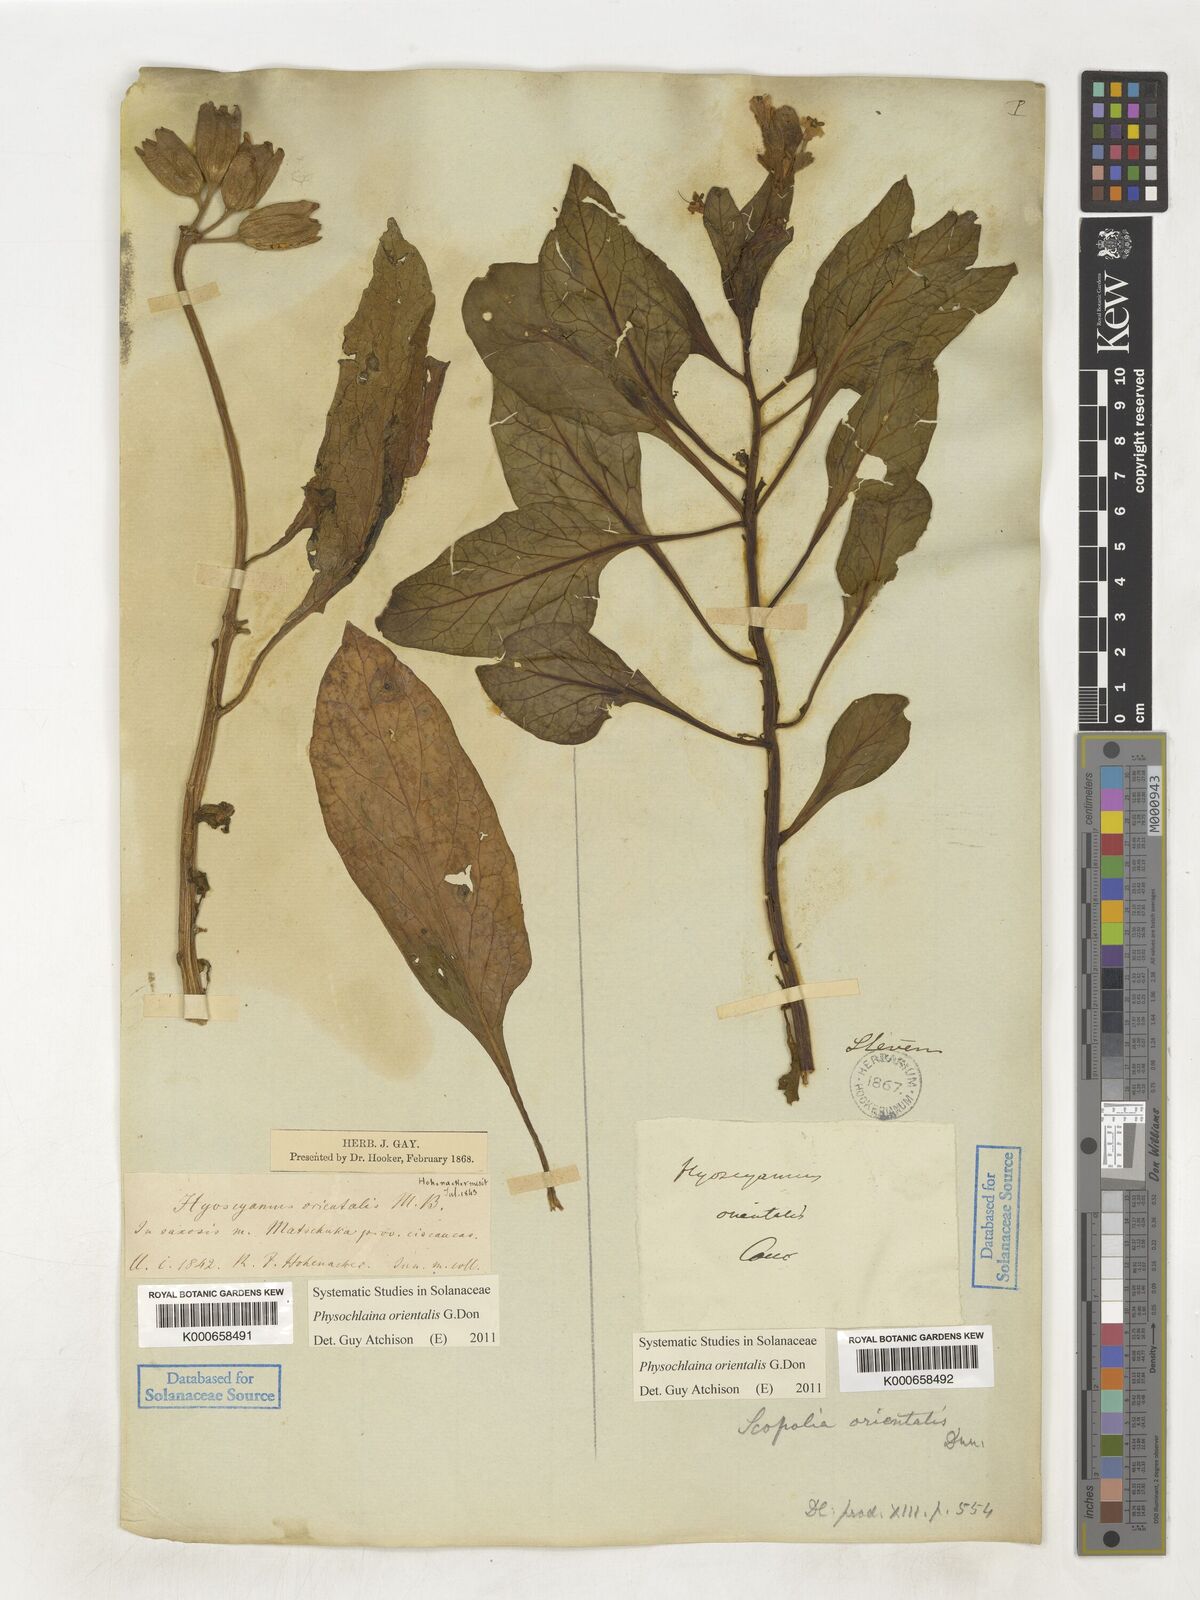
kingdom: Plantae
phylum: Tracheophyta
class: Magnoliopsida
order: Solanales
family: Solanaceae
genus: Physochlaina
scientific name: Physochlaina orientalis
